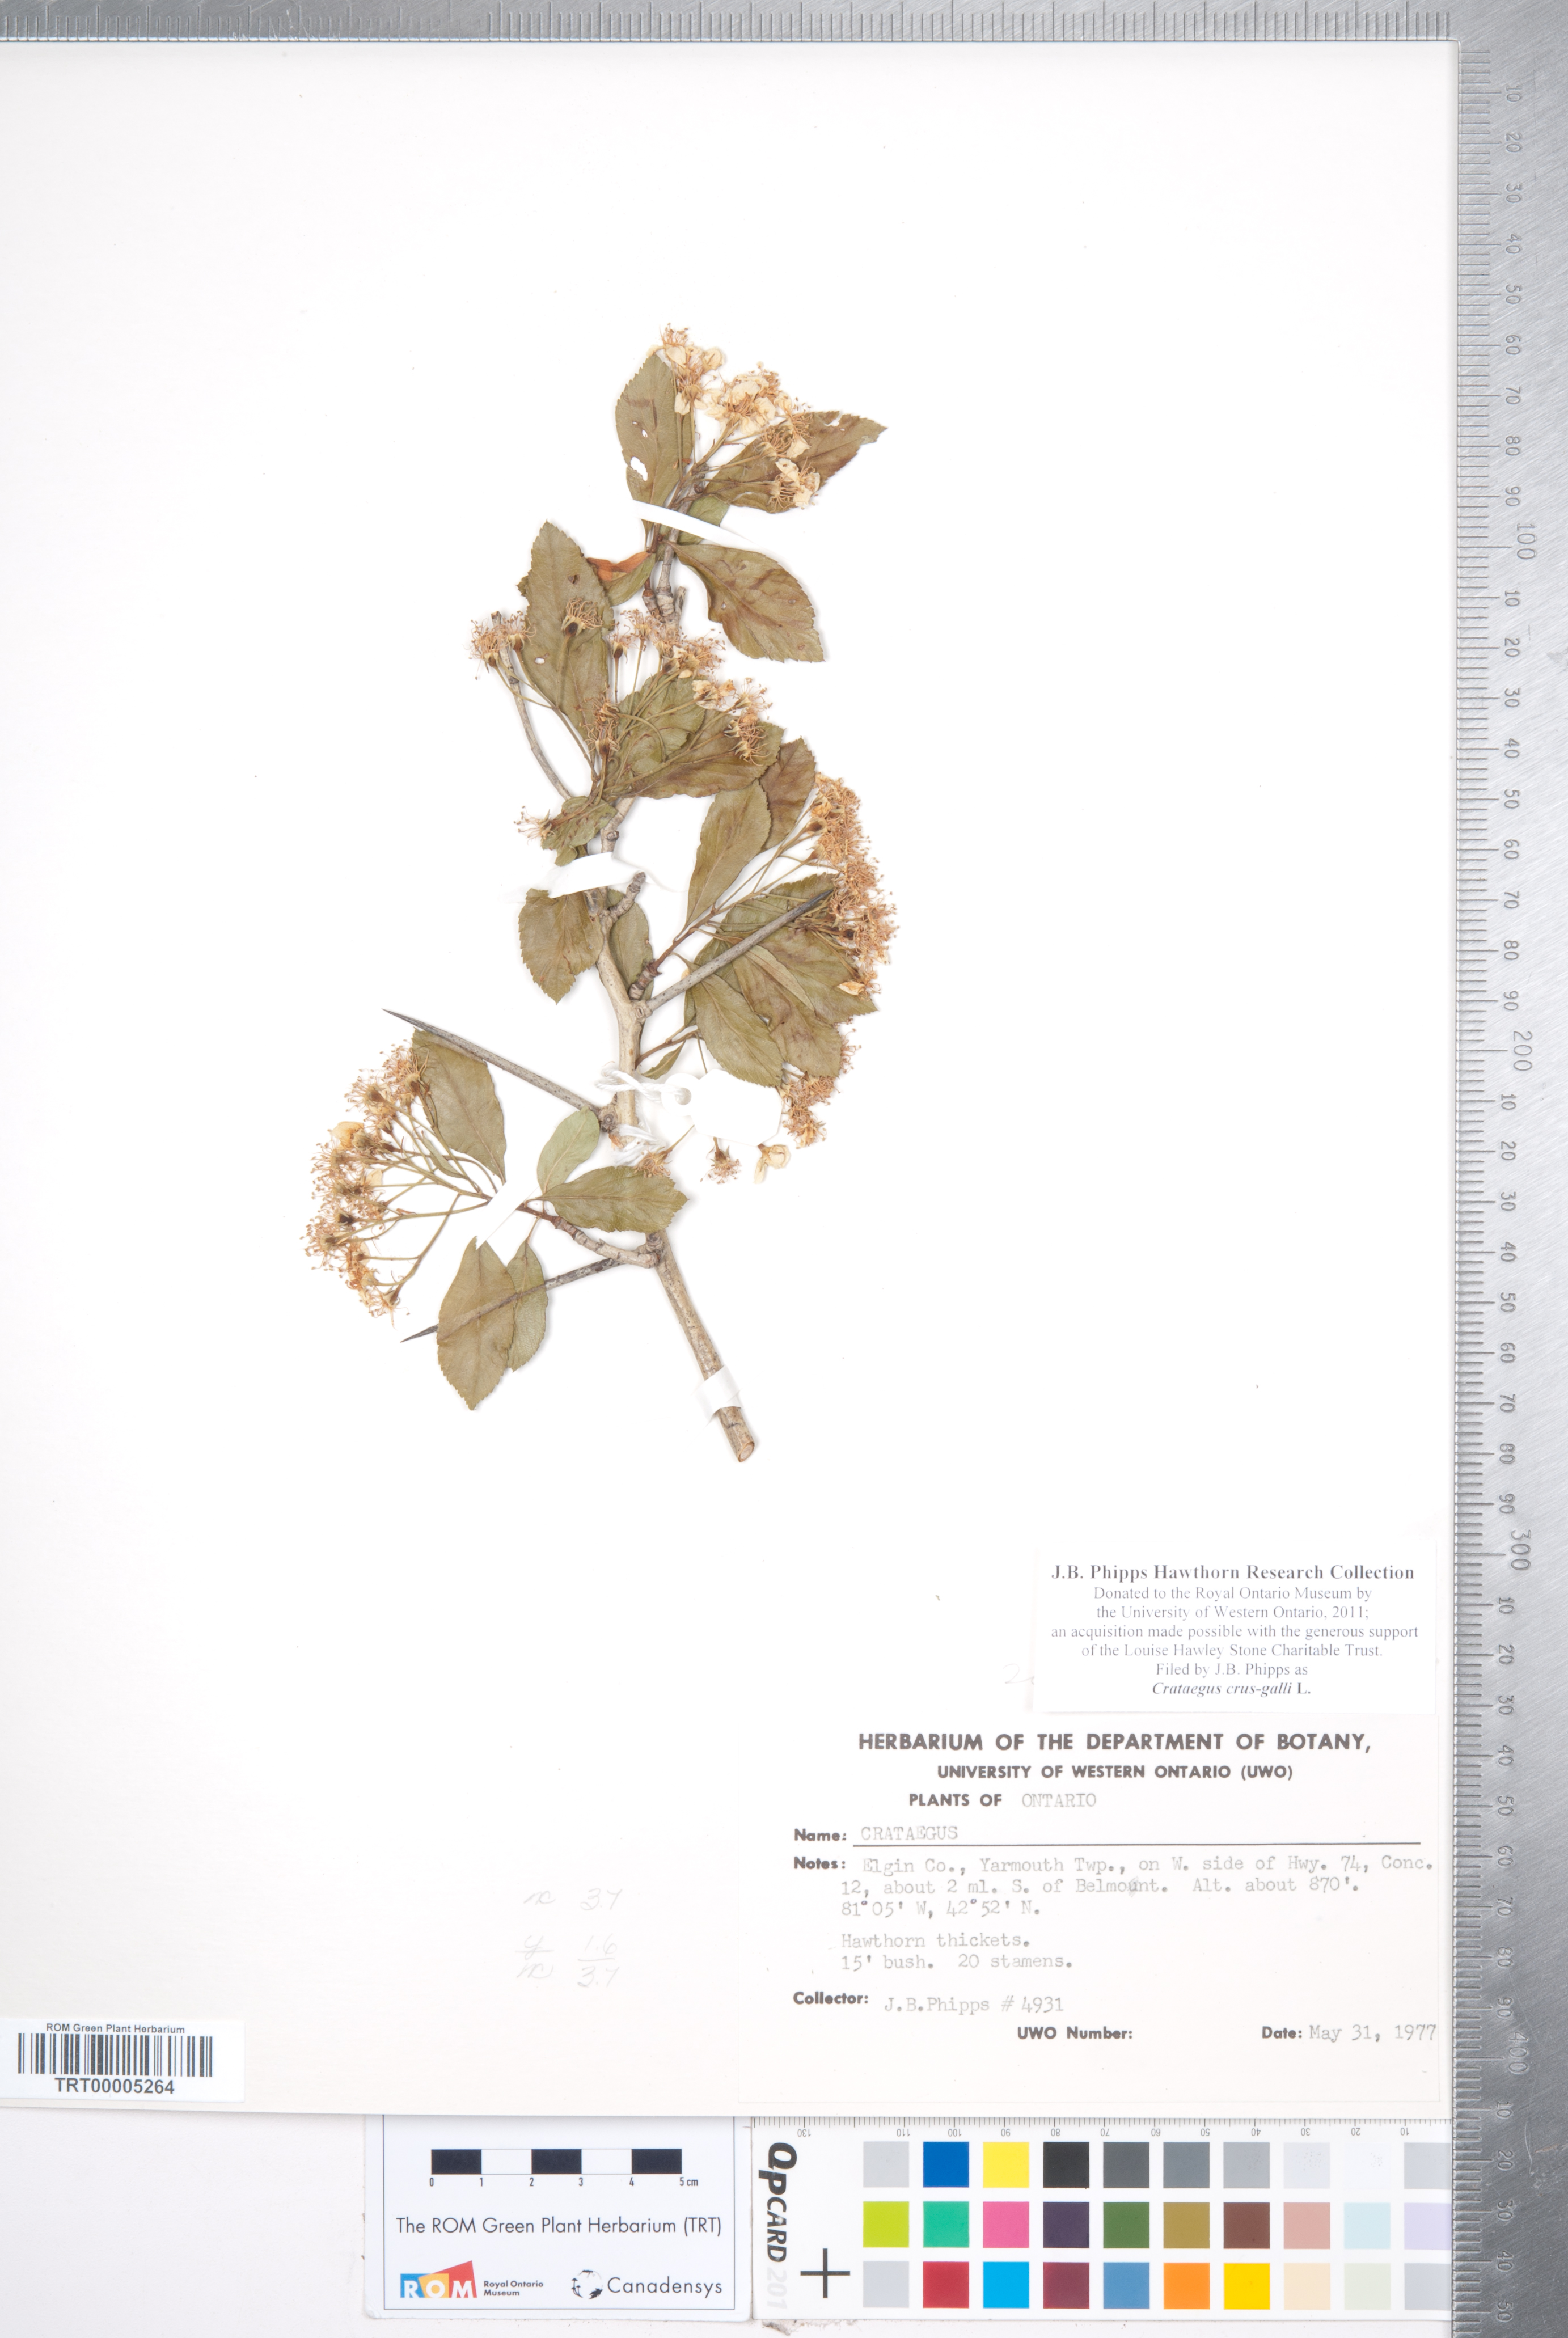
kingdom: Plantae
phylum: Tracheophyta
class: Magnoliopsida
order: Rosales
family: Rosaceae
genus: Crataegus
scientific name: Crataegus crus-galli
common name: Cockspurthorn
